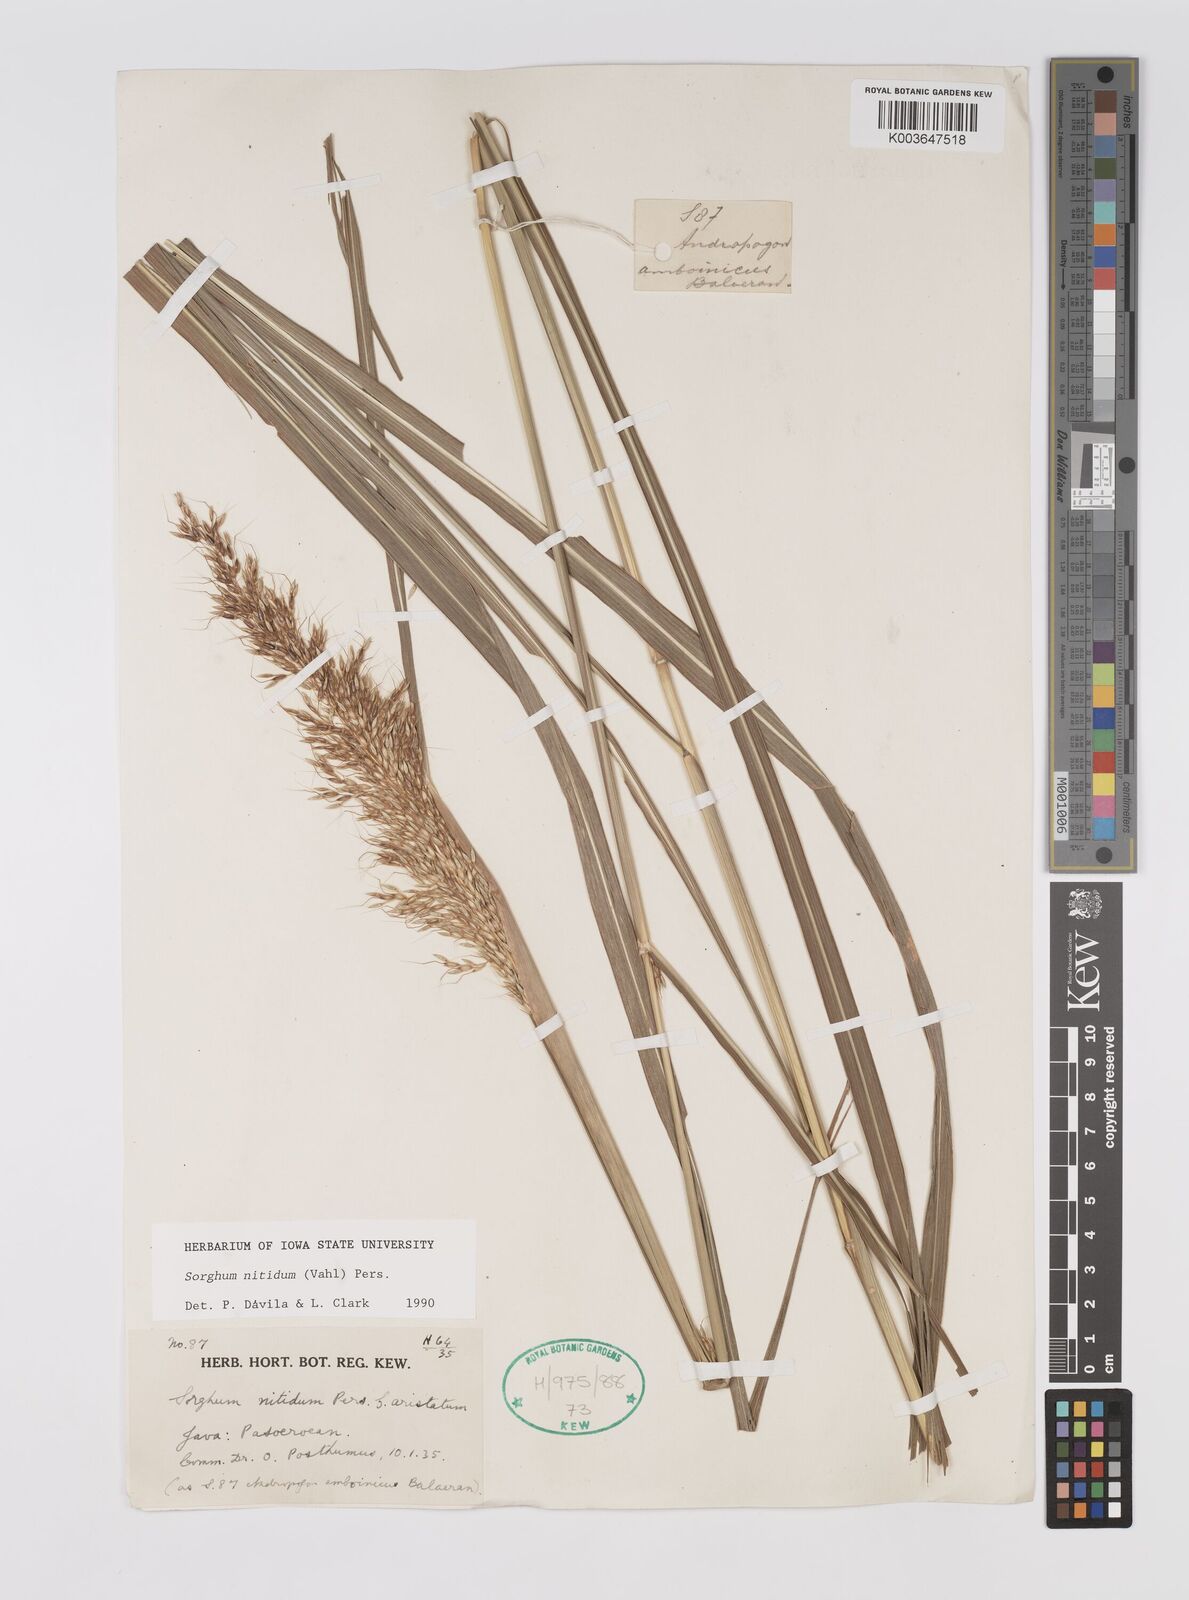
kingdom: Plantae
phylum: Tracheophyta
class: Liliopsida
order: Poales
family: Poaceae
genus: Sorghum
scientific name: Sorghum nitidum
